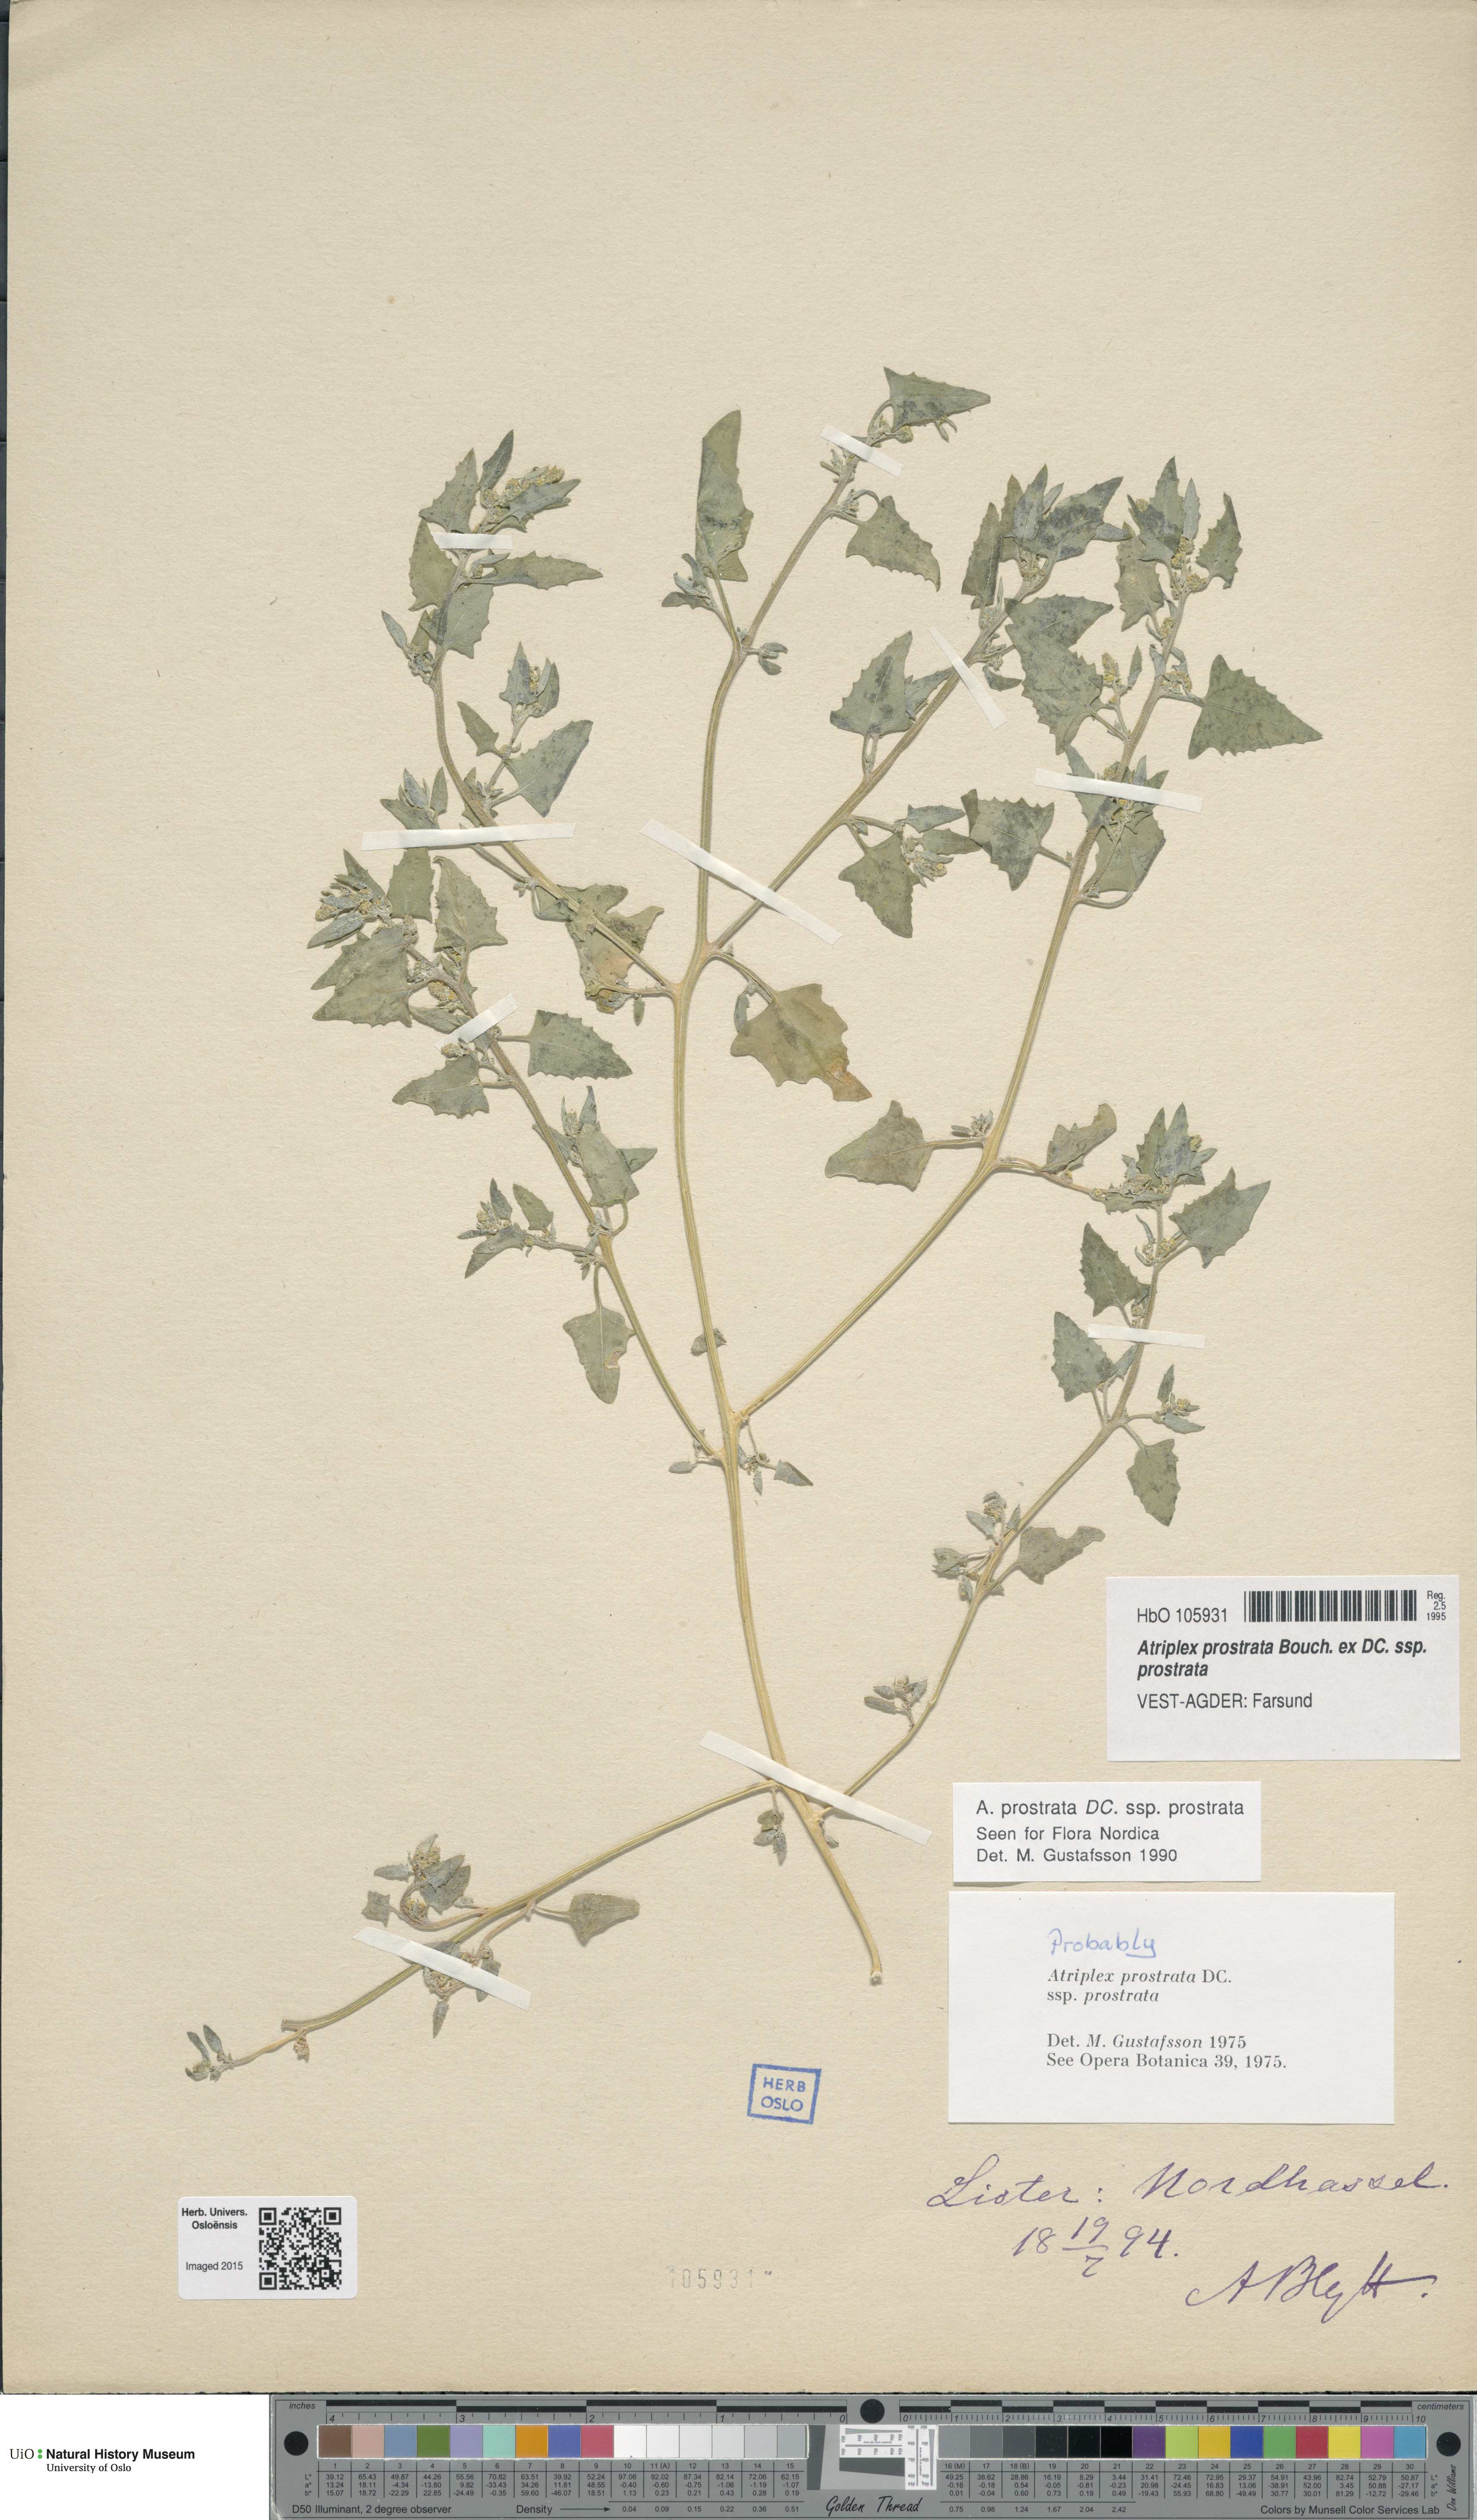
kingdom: Plantae
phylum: Tracheophyta
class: Magnoliopsida
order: Caryophyllales
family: Amaranthaceae
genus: Atriplex
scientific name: Atriplex prostrata
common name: Spear-leaved orache
